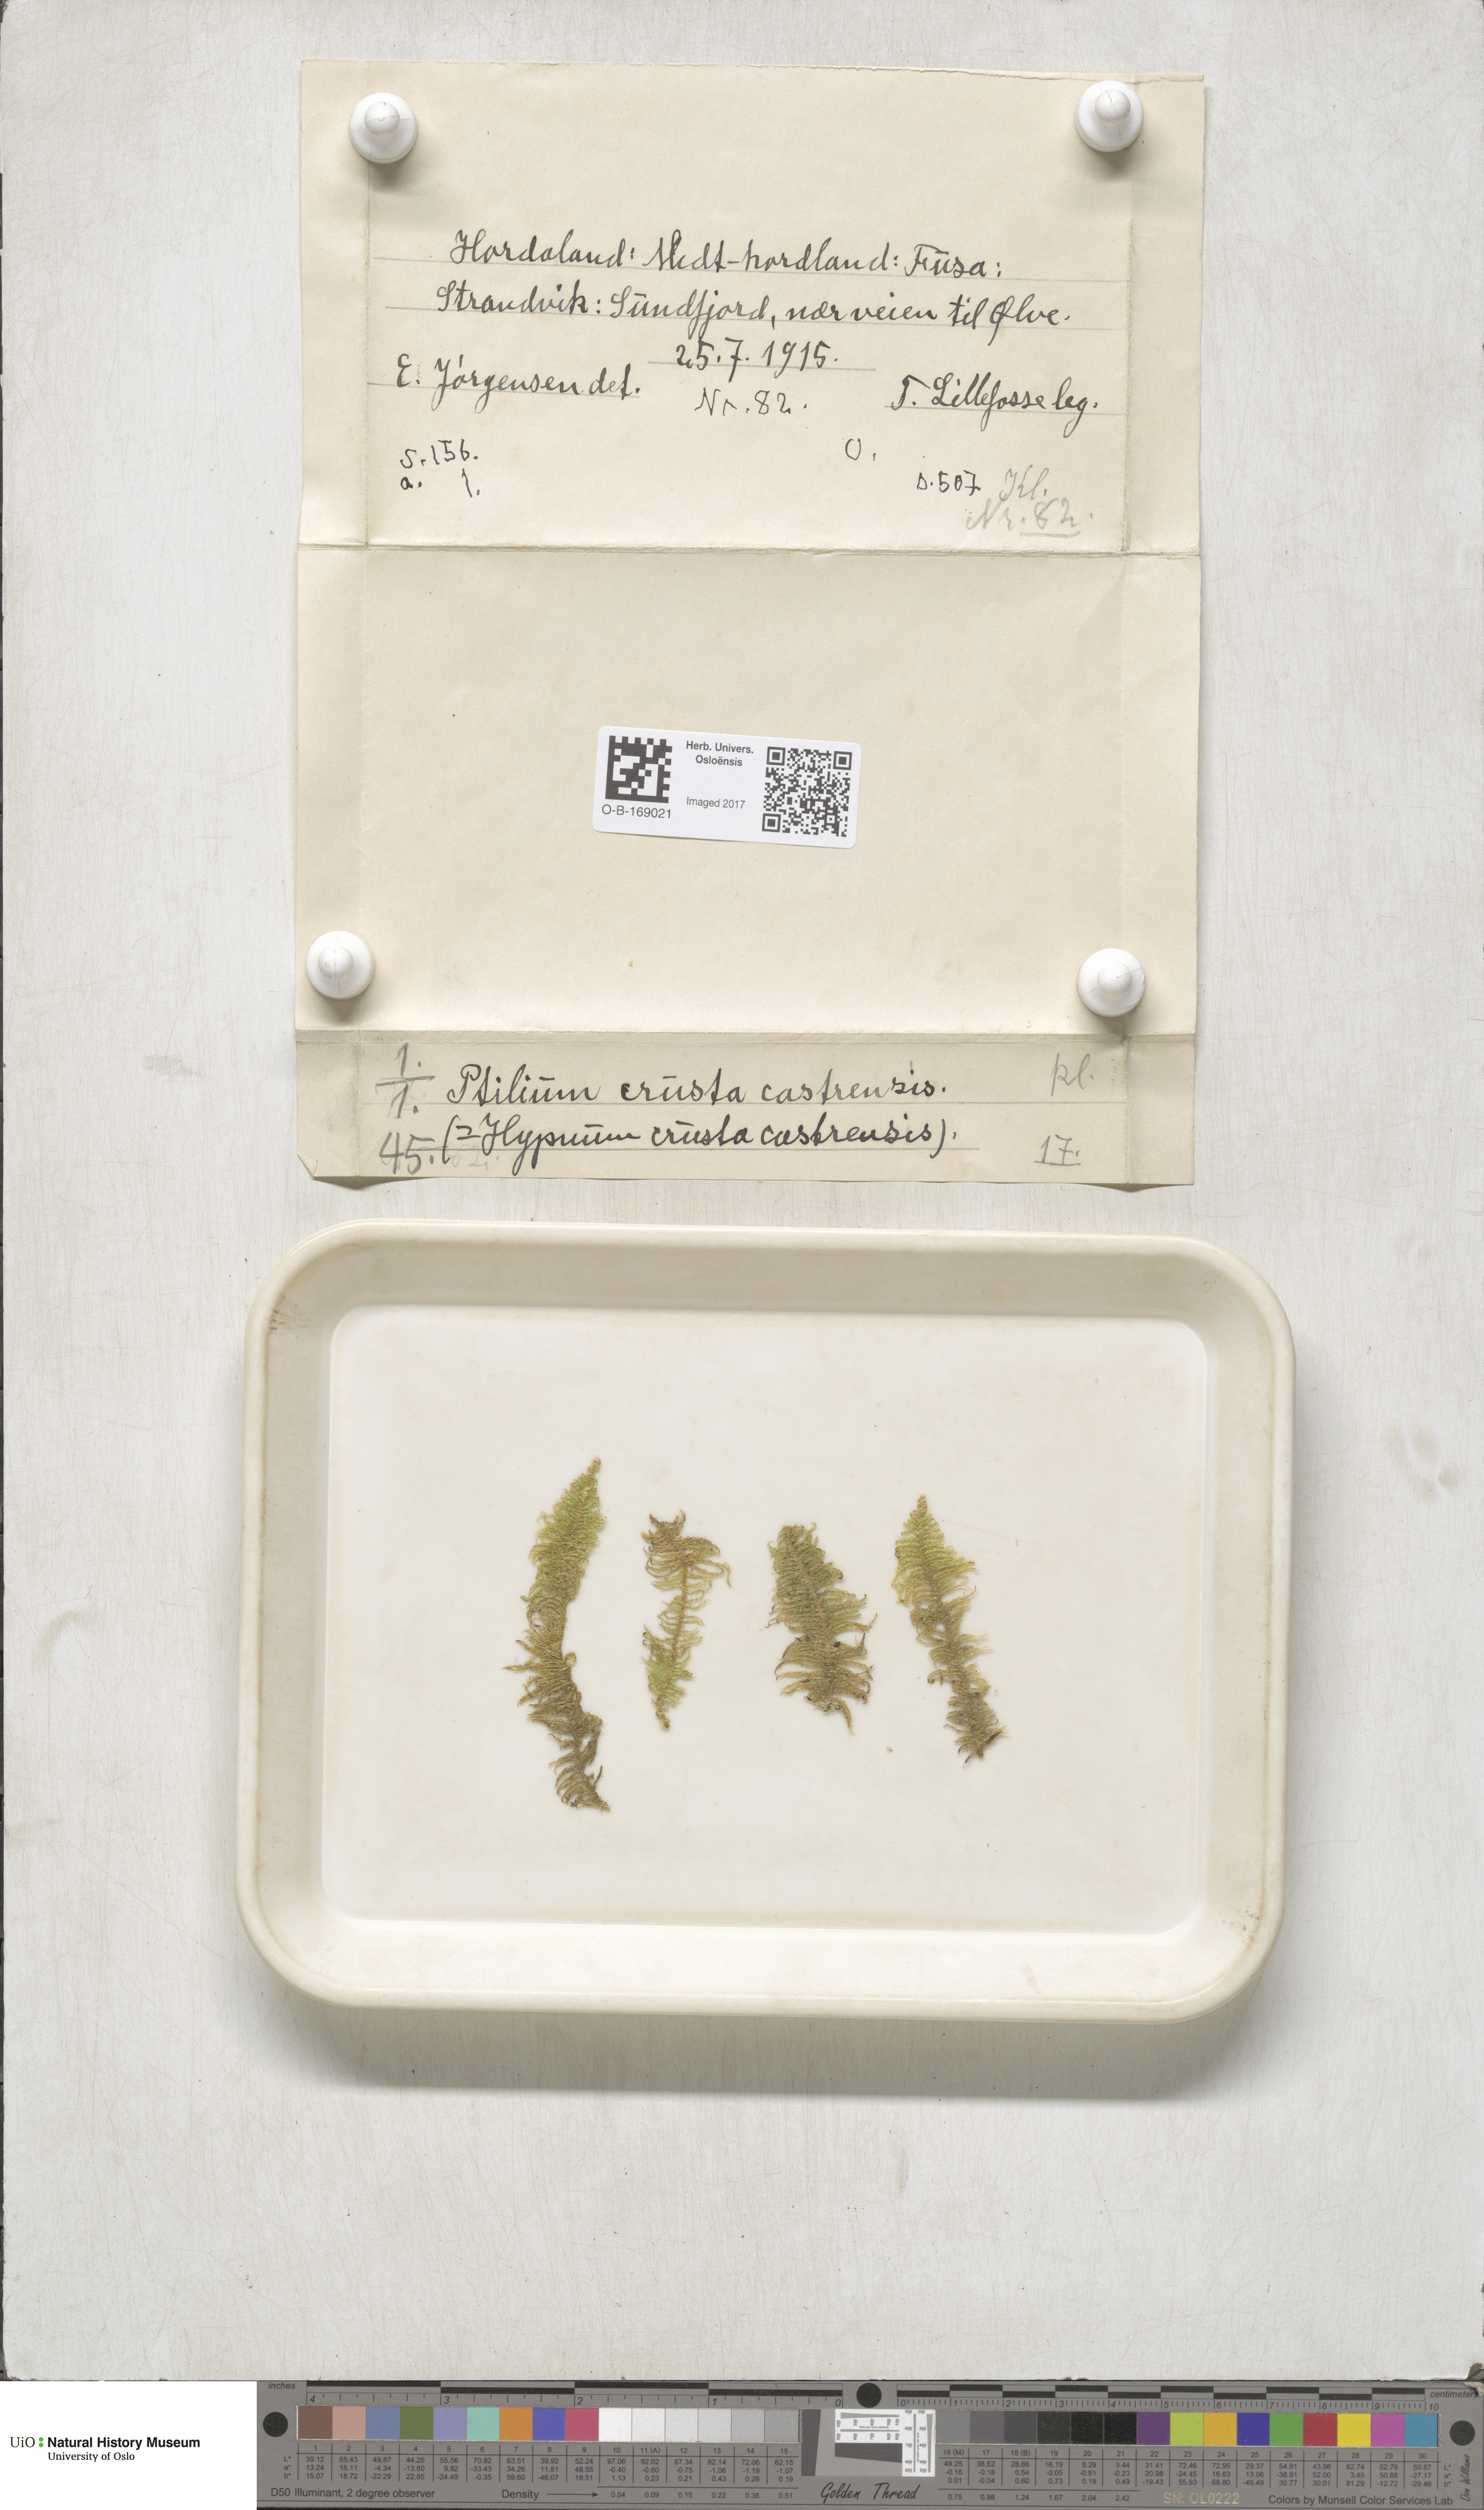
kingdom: Plantae
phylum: Bryophyta
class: Bryopsida
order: Hypnales
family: Pylaisiaceae
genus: Ptilium
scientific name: Ptilium crista-castrensis
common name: Knight's plume moss
